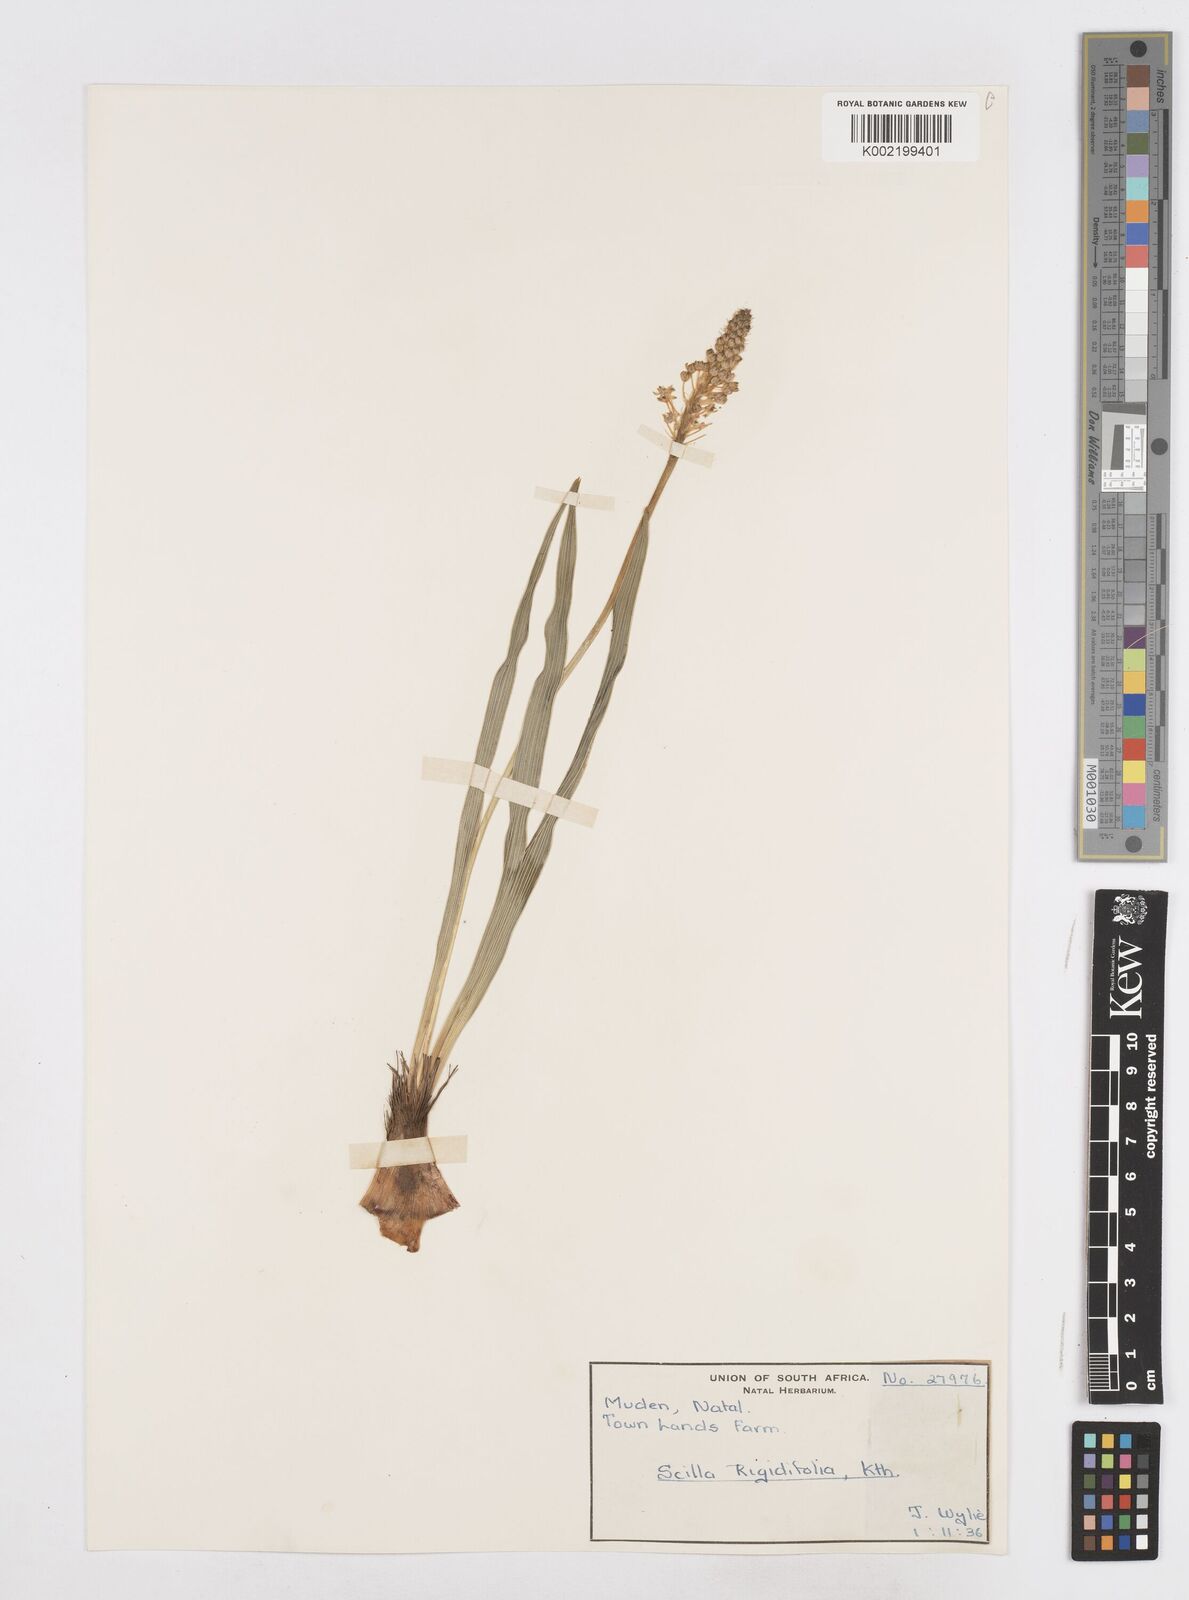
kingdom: Plantae
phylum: Tracheophyta
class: Liliopsida
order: Asparagales
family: Asparagaceae
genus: Schizocarphus
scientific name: Schizocarphus nervosus
